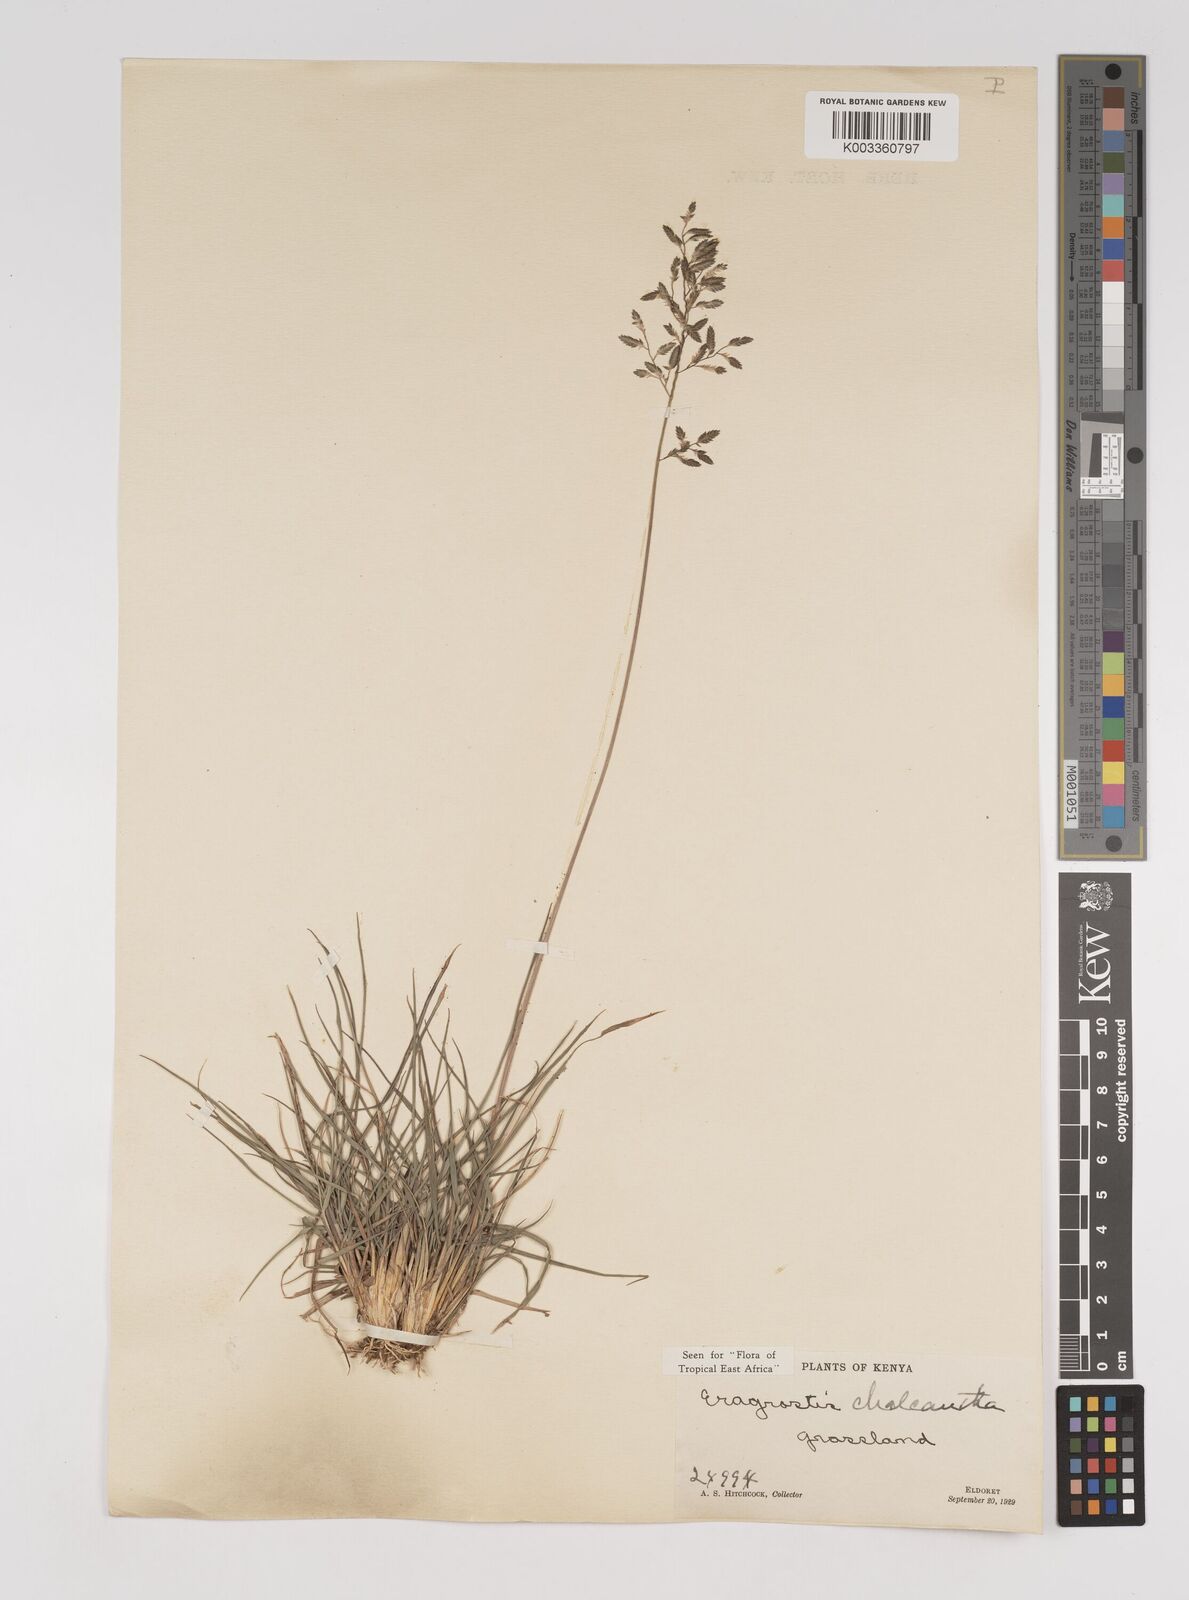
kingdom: Plantae
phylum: Tracheophyta
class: Liliopsida
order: Poales
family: Poaceae
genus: Eragrostis
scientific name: Eragrostis racemosa
